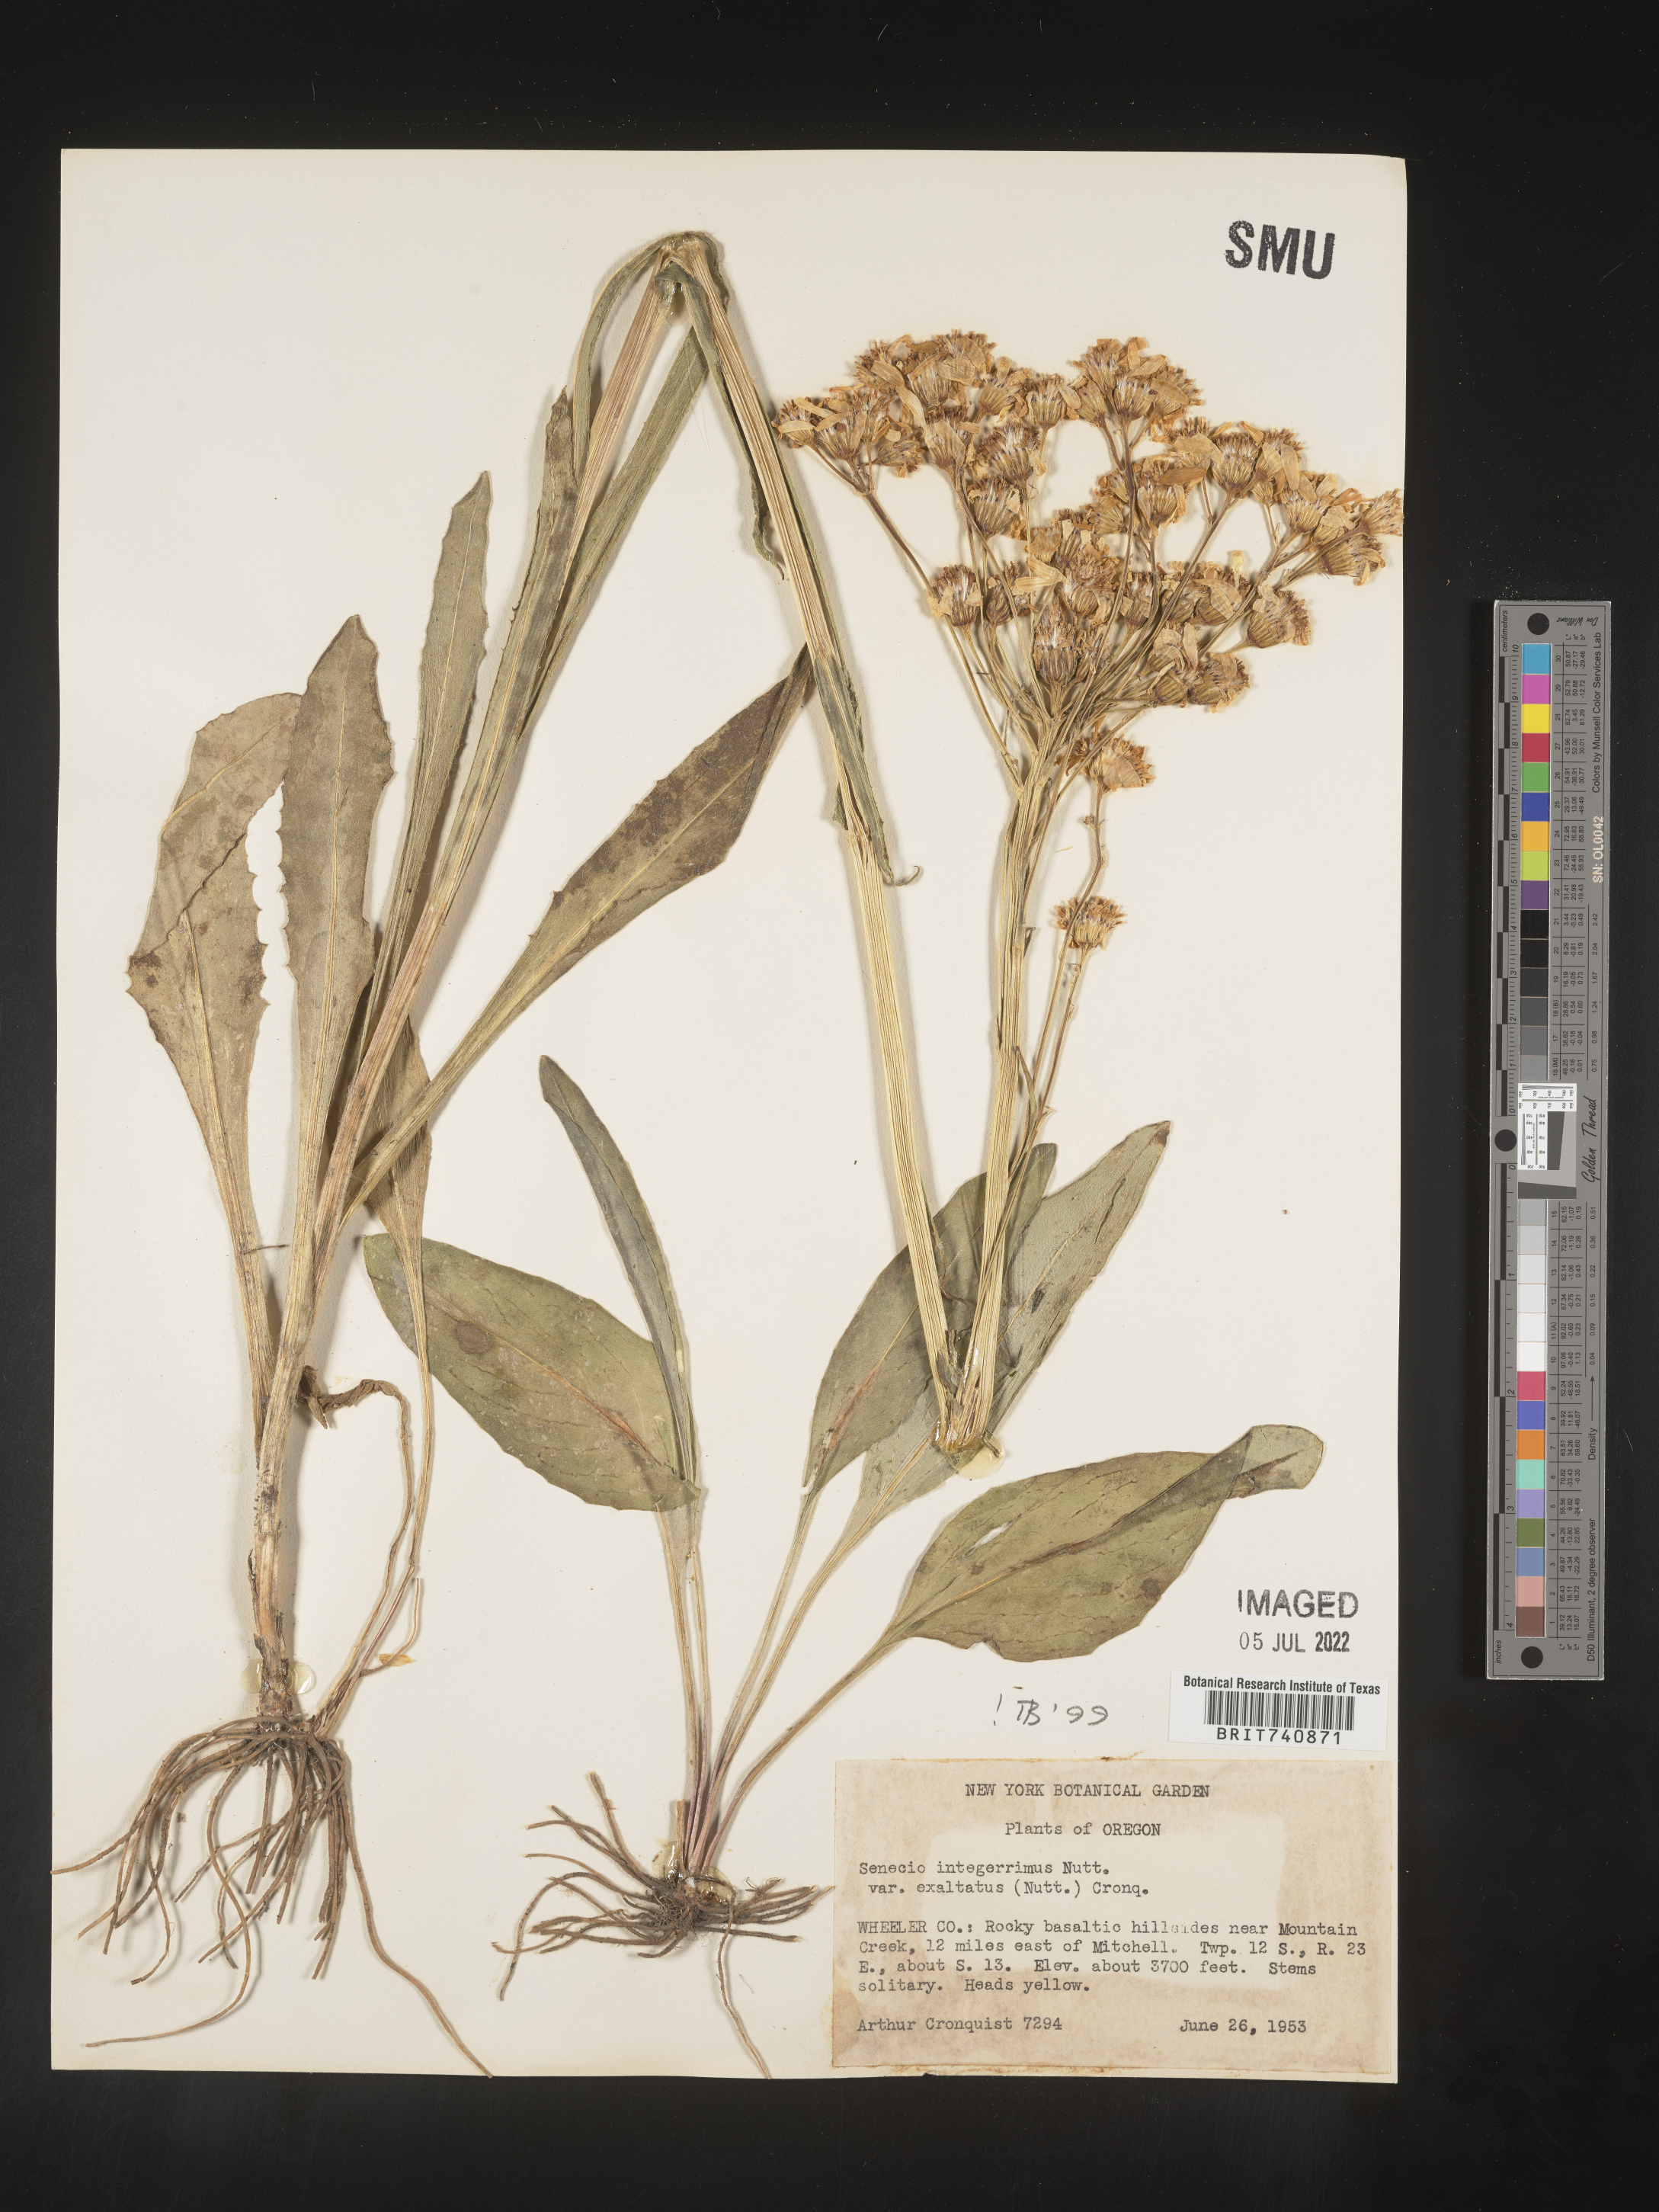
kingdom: Plantae
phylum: Tracheophyta
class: Magnoliopsida
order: Asterales
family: Asteraceae
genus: Senecio
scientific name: Senecio integerrimus
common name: Gaugeplant
